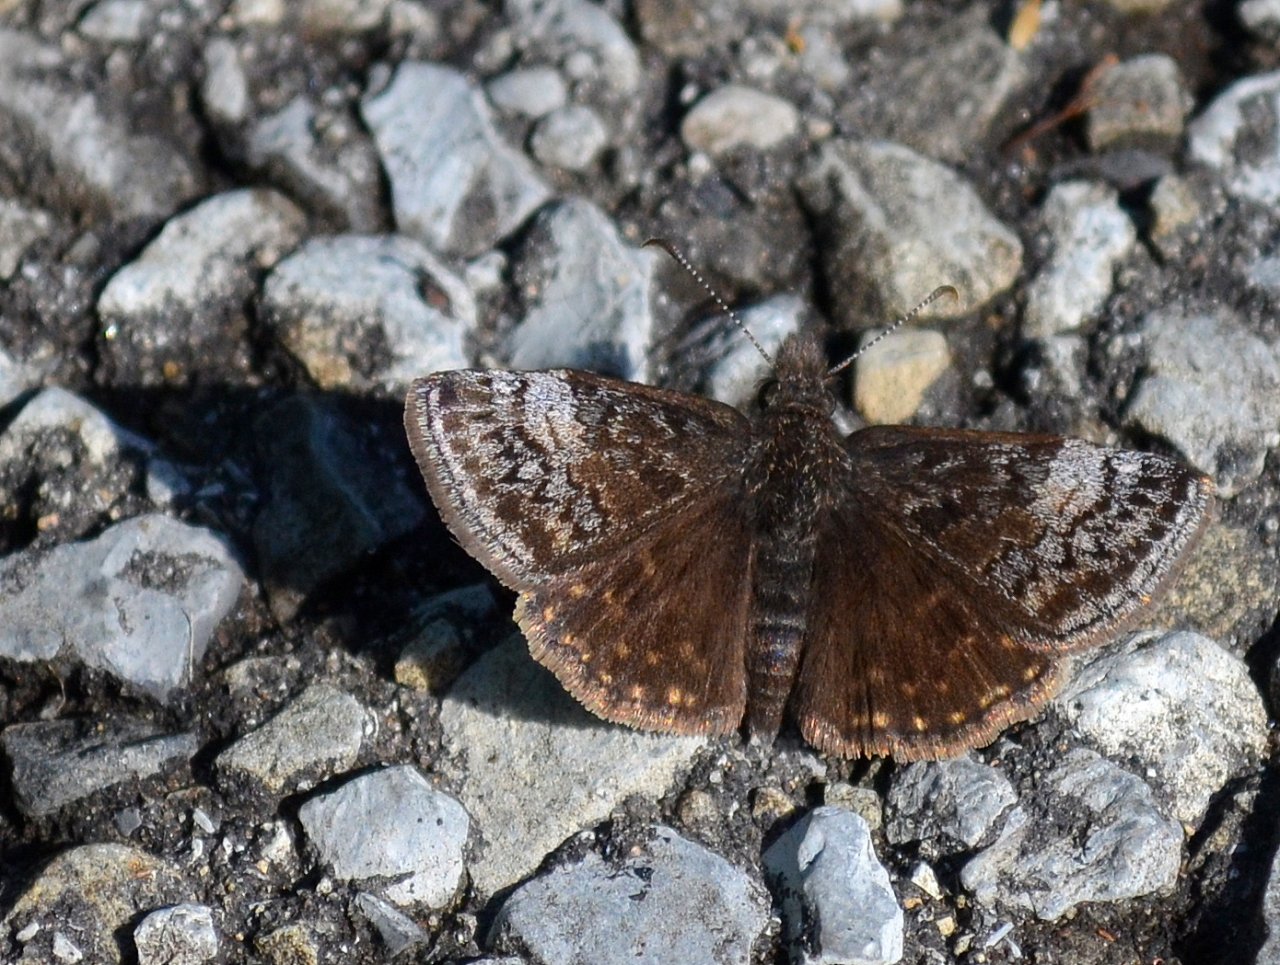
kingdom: Animalia
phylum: Arthropoda
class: Insecta
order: Lepidoptera
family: Hesperiidae
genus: Erynnis
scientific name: Erynnis icelus
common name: Dreamy Duskywing
